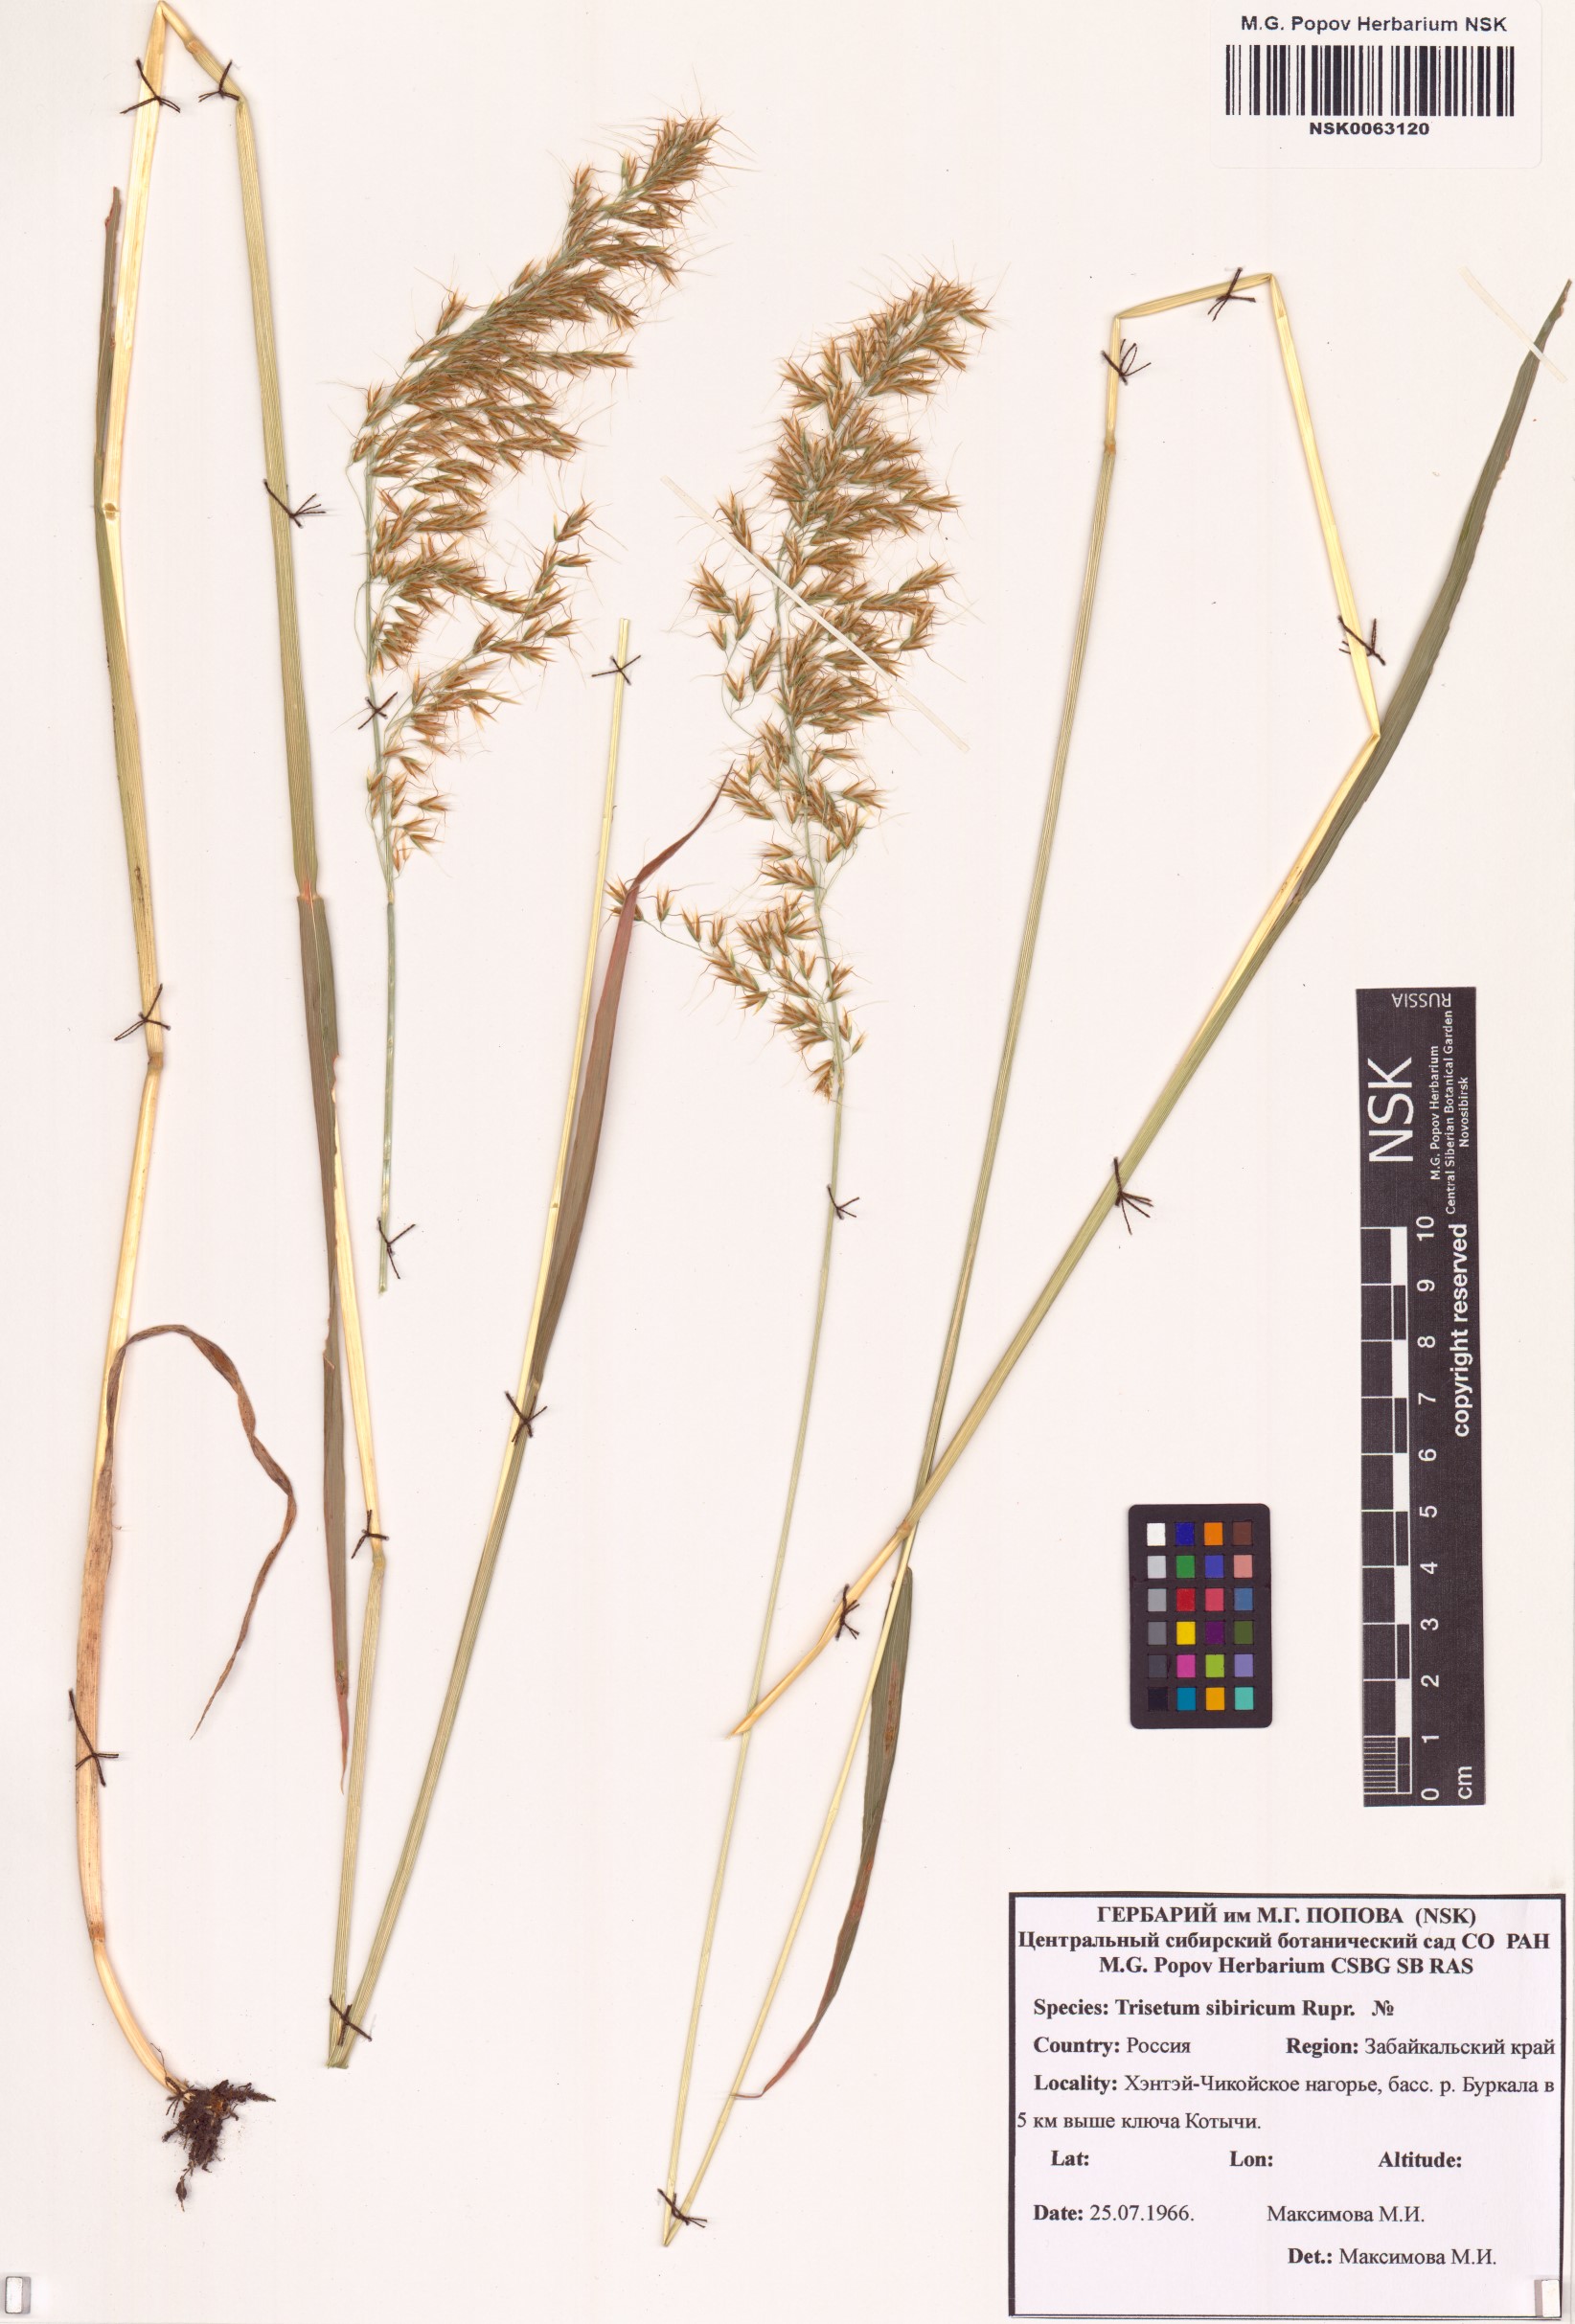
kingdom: Plantae
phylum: Tracheophyta
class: Liliopsida
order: Poales
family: Poaceae
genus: Sibirotrisetum
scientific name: Sibirotrisetum sibiricum
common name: Siberian false oat
